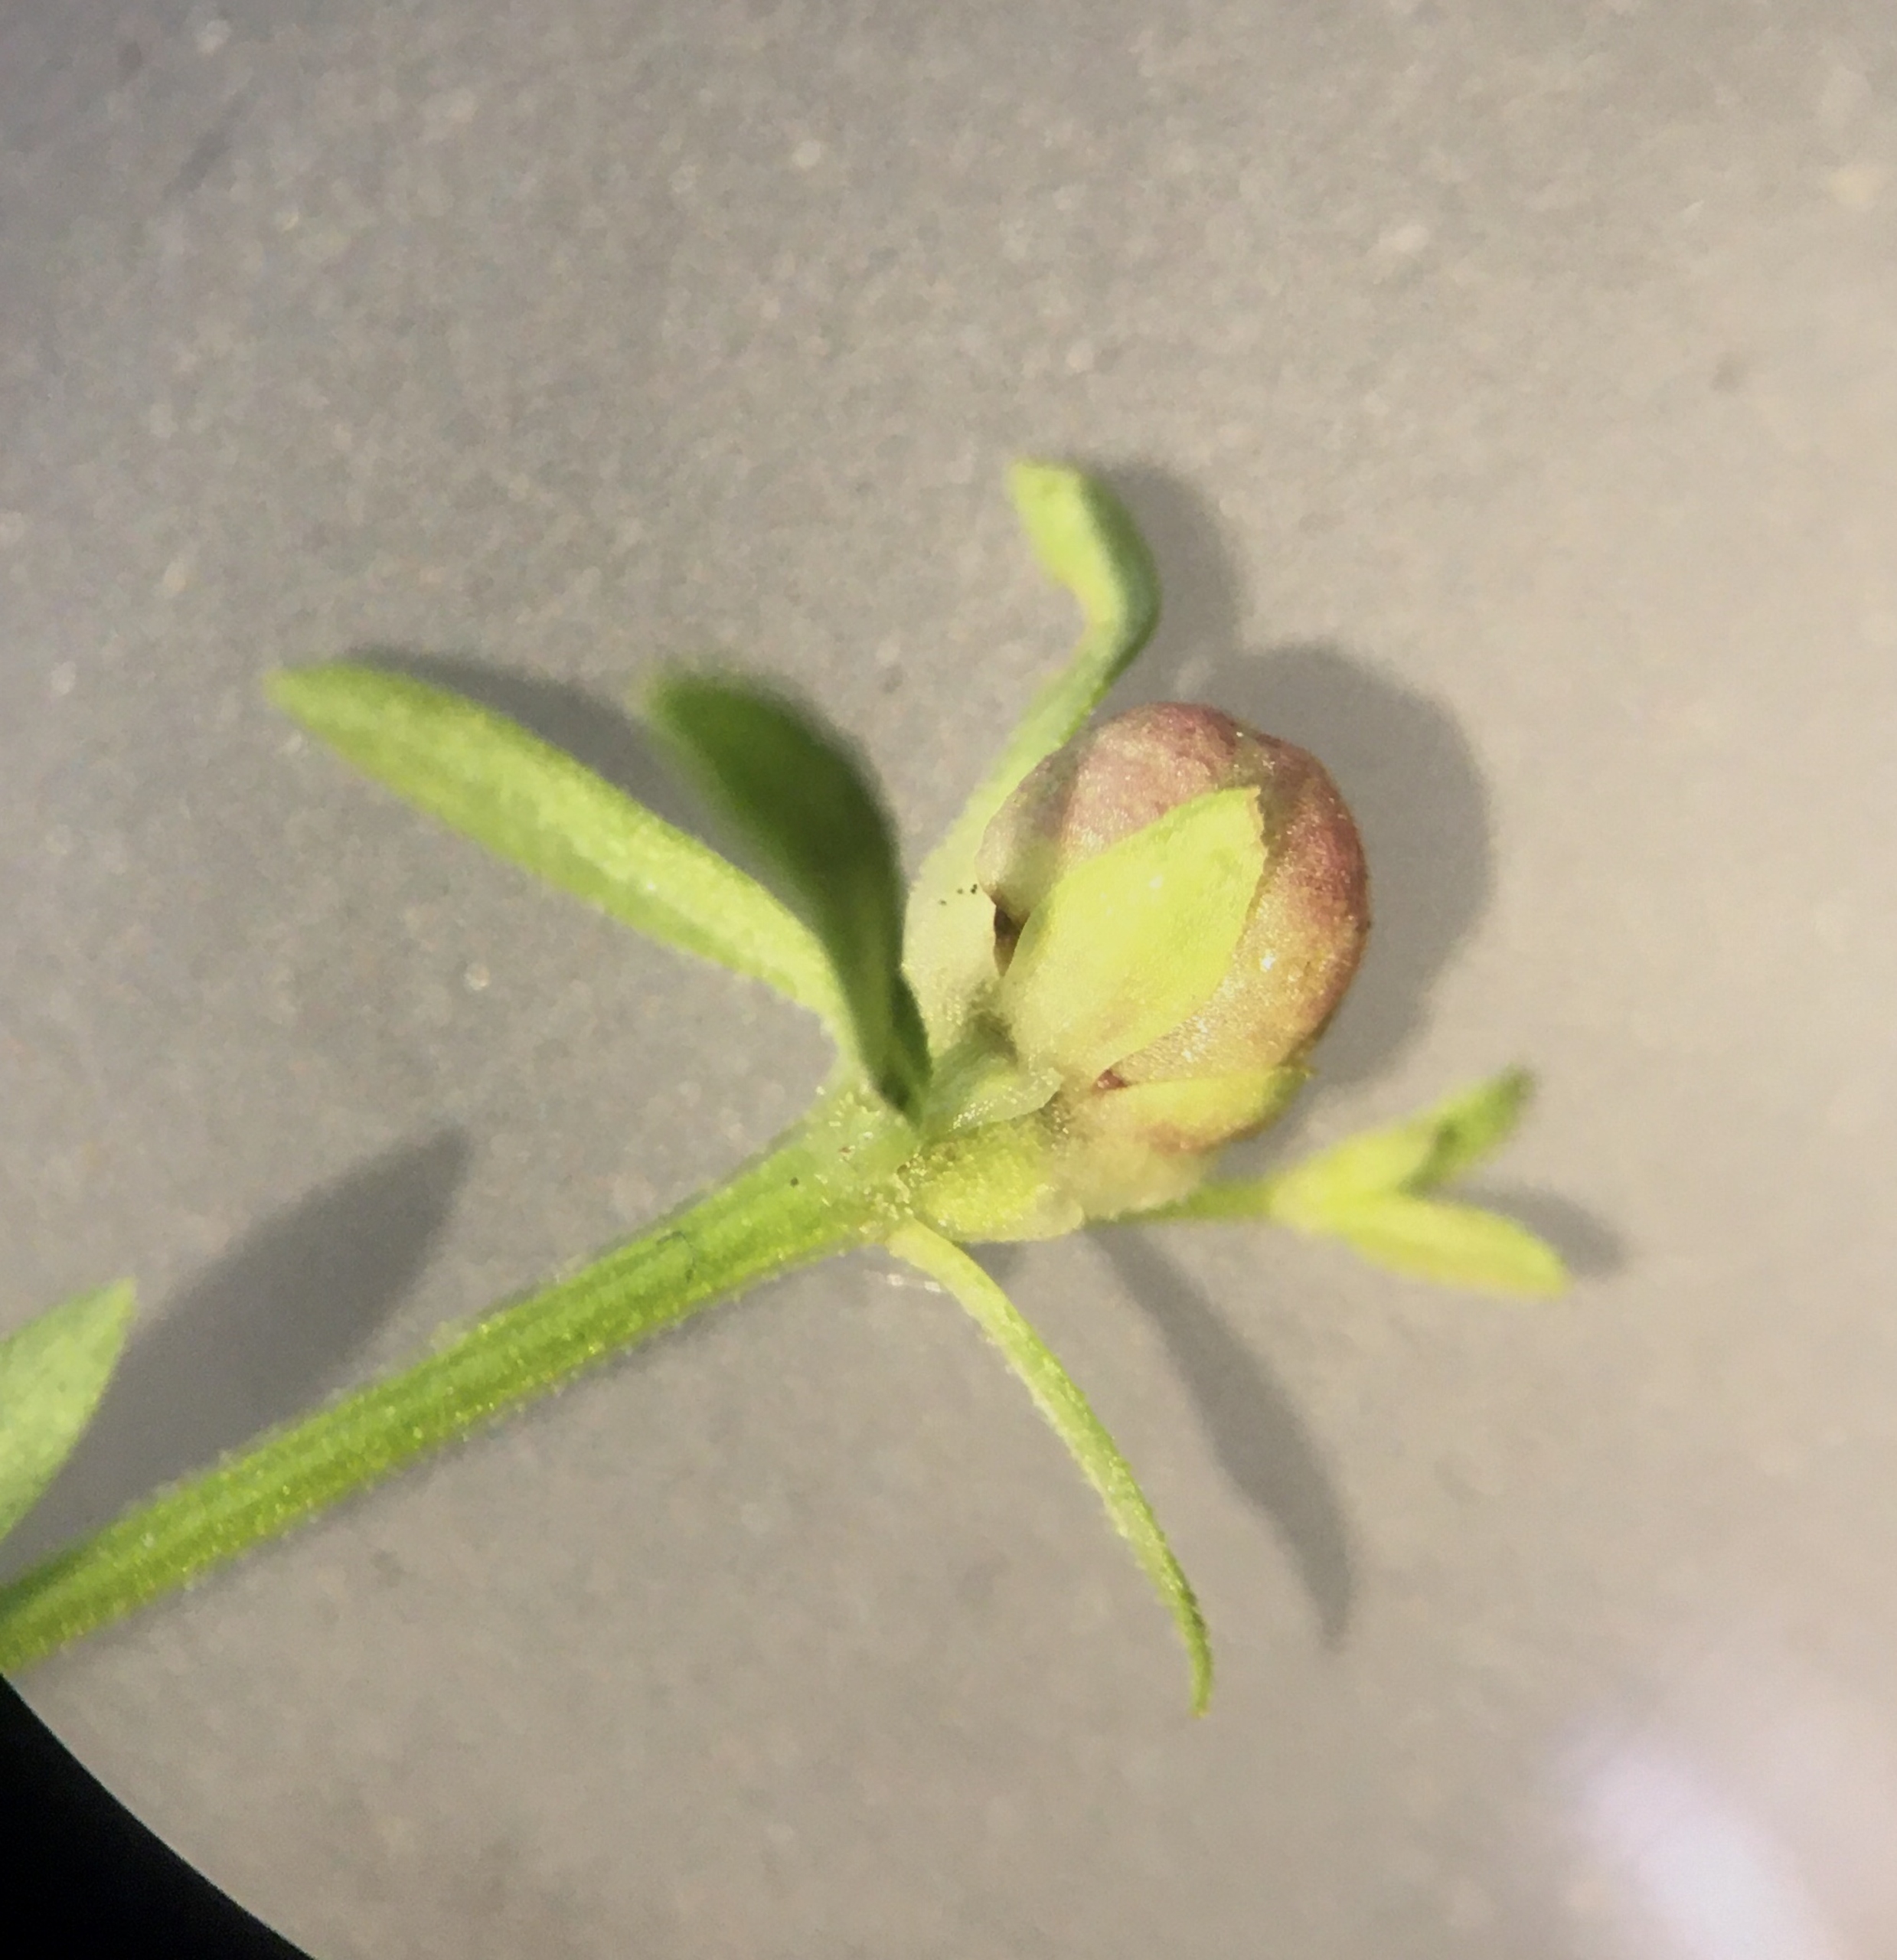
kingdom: Animalia
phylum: Arthropoda
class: Insecta
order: Diptera
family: Cecidomyiidae
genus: Dasineura
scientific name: Dasineura hygrophila
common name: Kærsnerregalmyg
